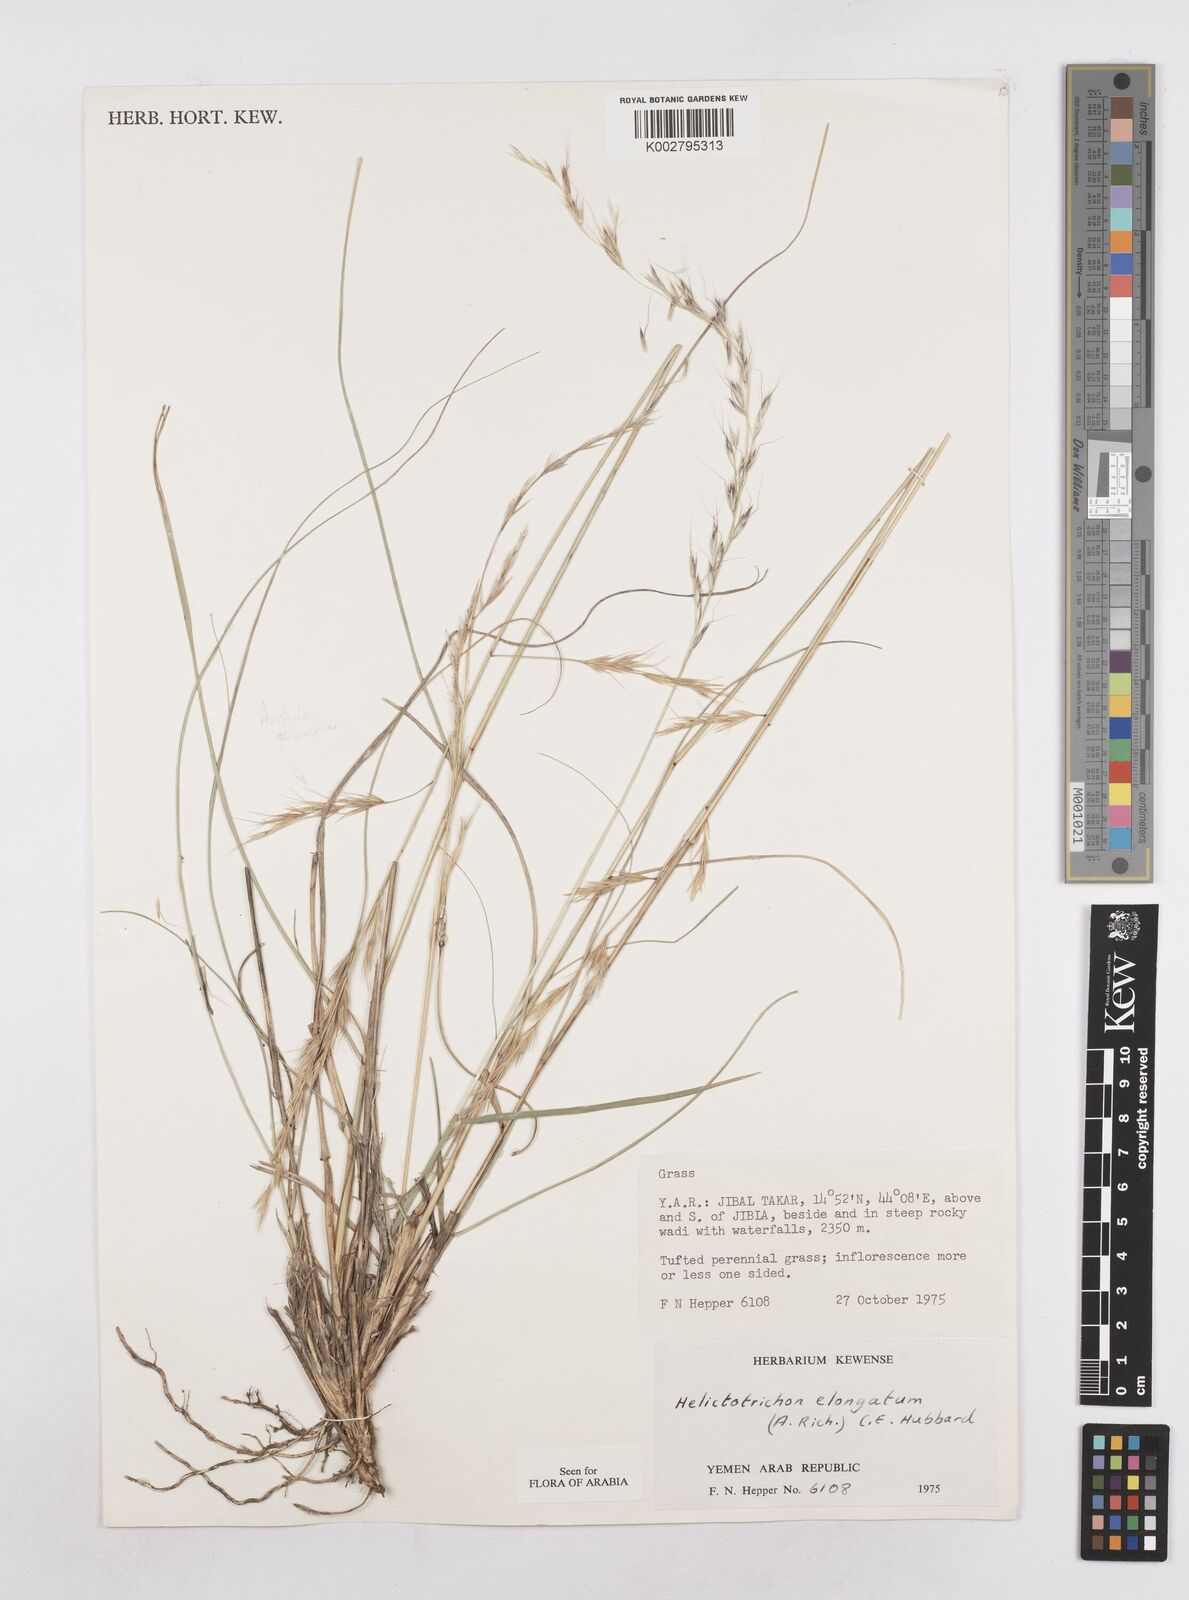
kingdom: Plantae
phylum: Tracheophyta
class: Liliopsida
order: Poales
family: Poaceae
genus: Trisetopsis
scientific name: Trisetopsis elongata
